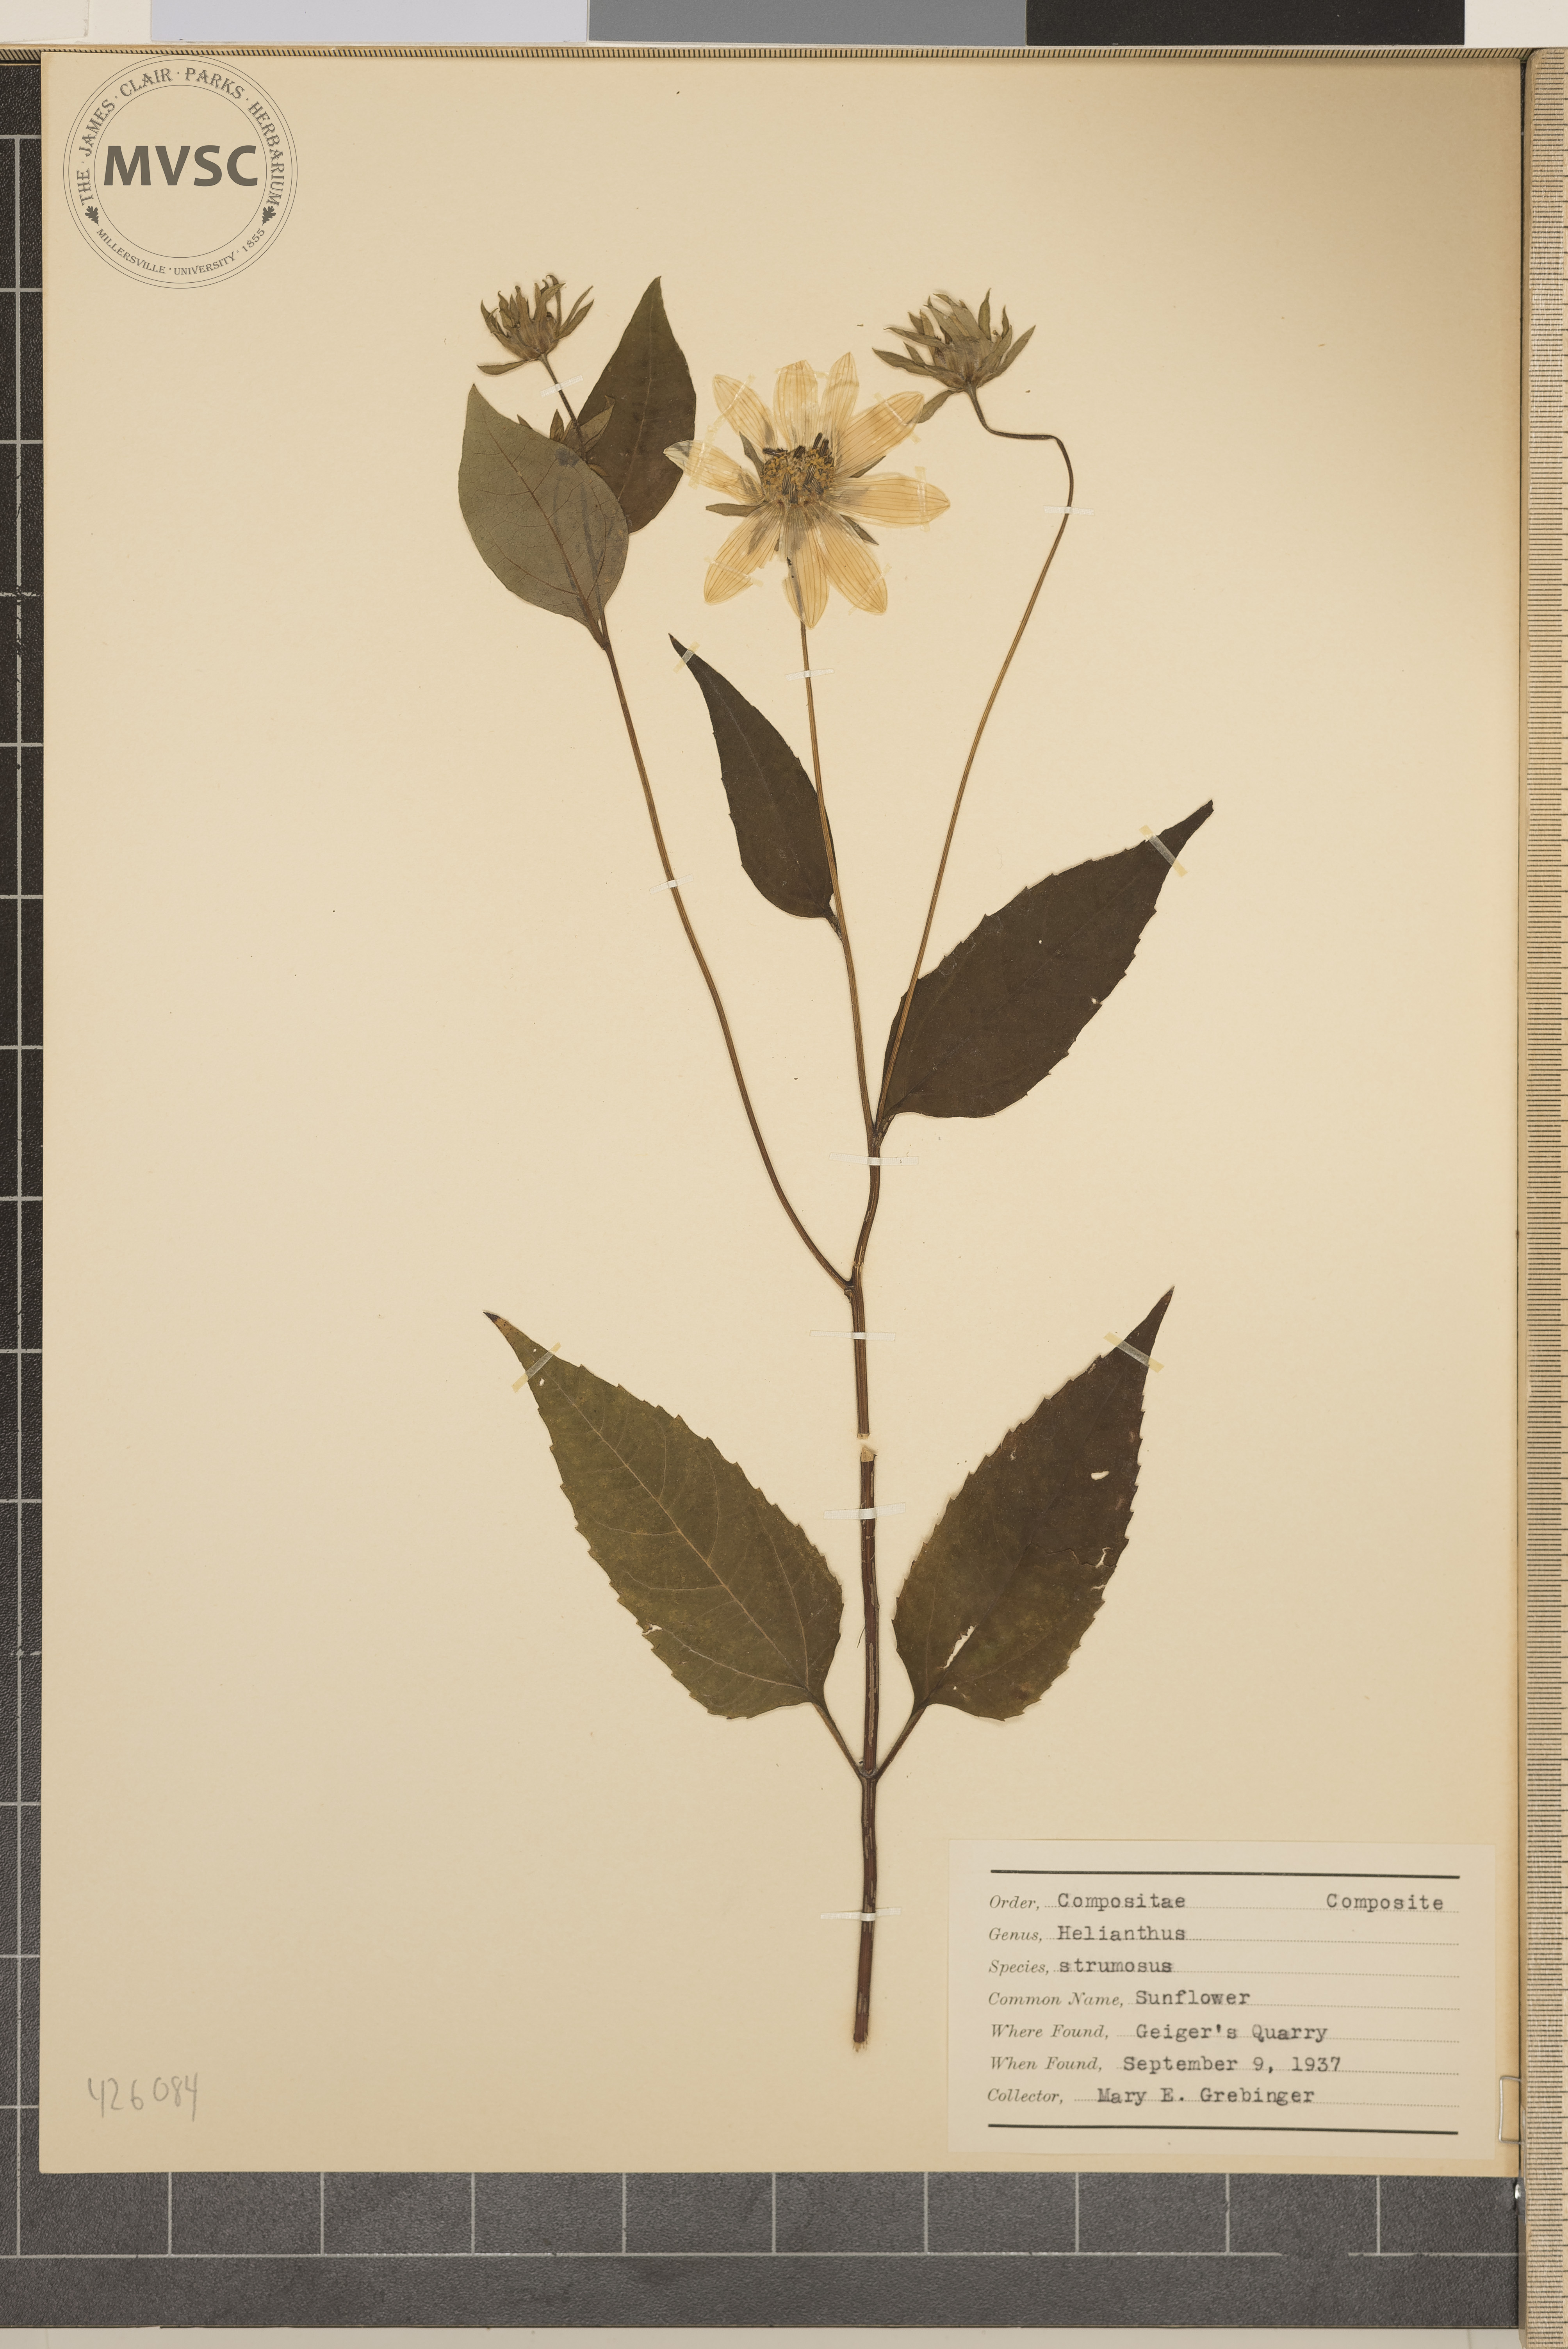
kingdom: Plantae
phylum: Tracheophyta
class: Magnoliopsida
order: Asterales
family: Asteraceae
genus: Helianthus
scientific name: Helianthus strumosus
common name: Sunflower
